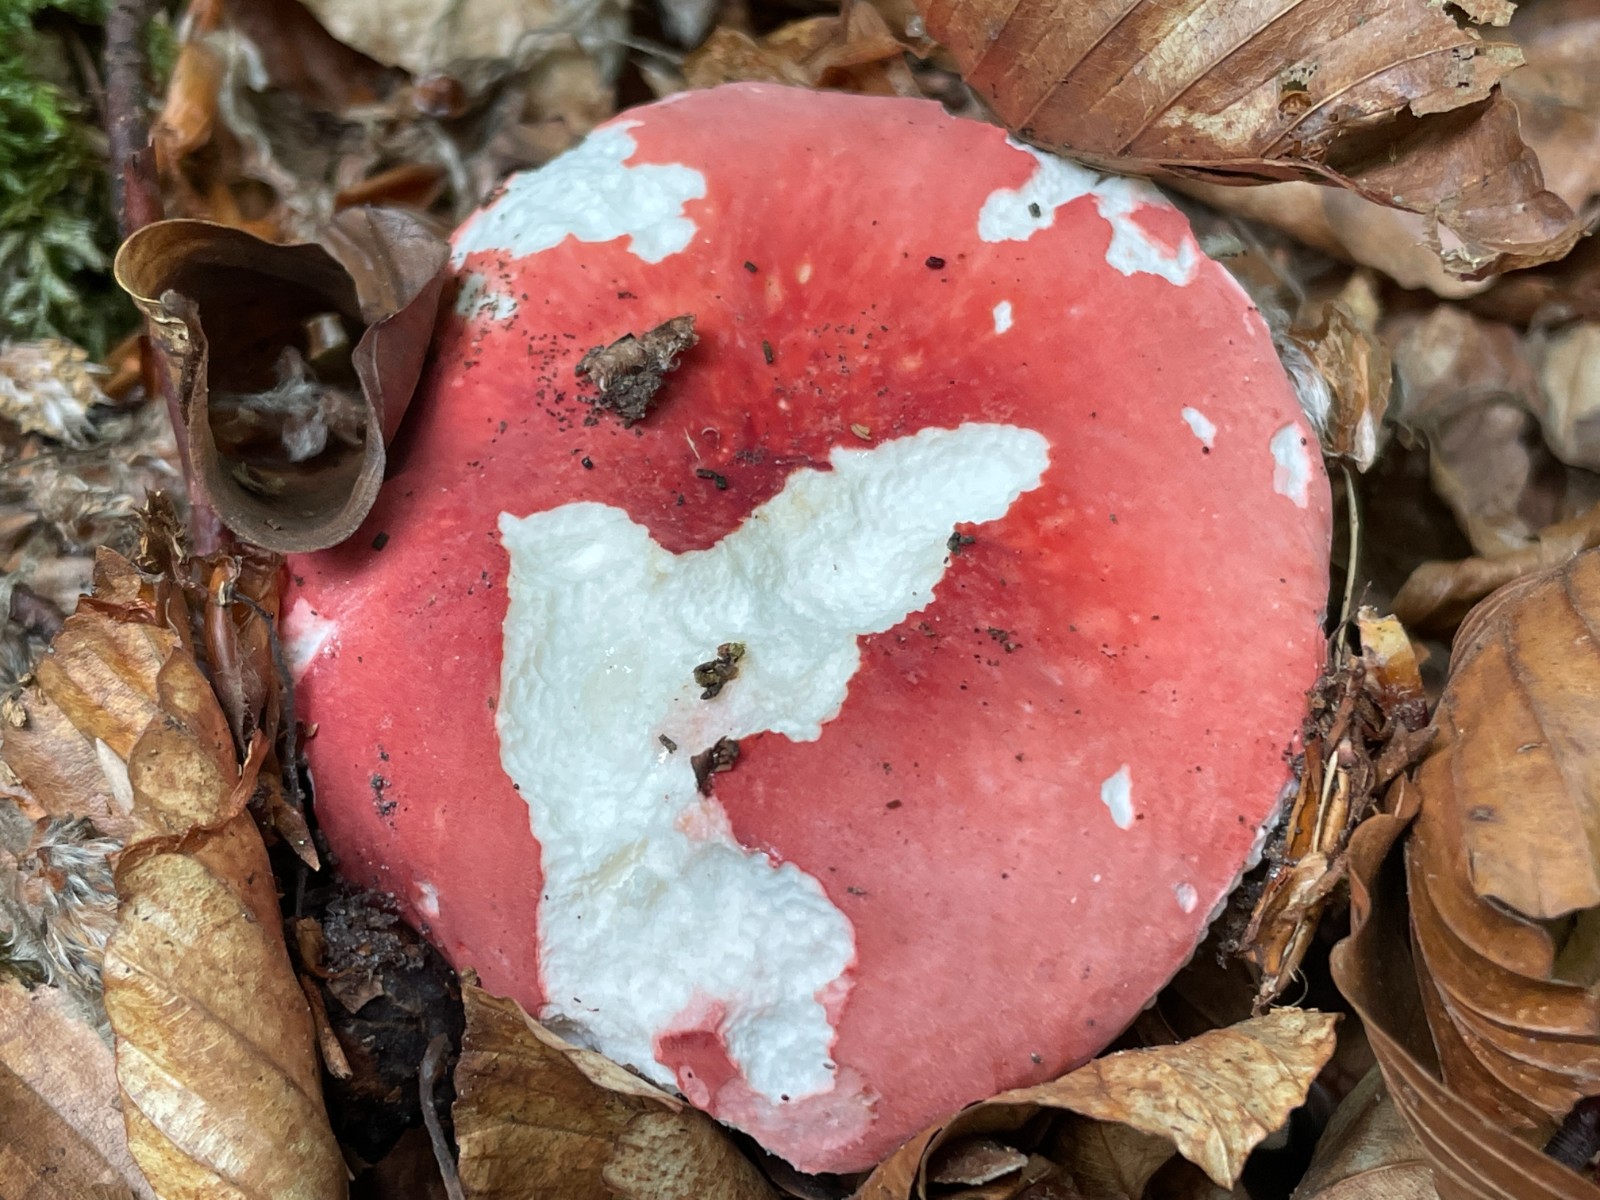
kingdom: Fungi
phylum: Basidiomycota
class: Agaricomycetes
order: Russulales
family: Russulaceae
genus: Russula
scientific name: Russula rosea
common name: fastkødet skørhat
